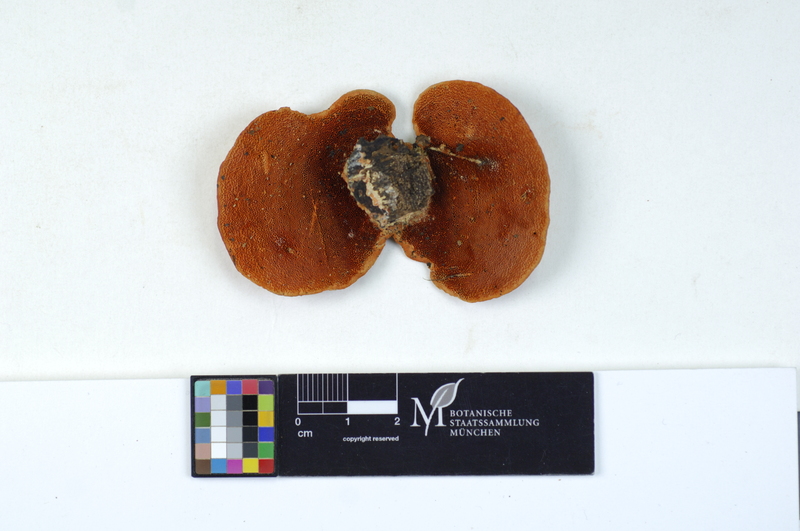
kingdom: Fungi
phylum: Basidiomycota
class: Agaricomycetes
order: Polyporales
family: Polyporaceae
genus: Trametes
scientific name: Trametes coccinea
